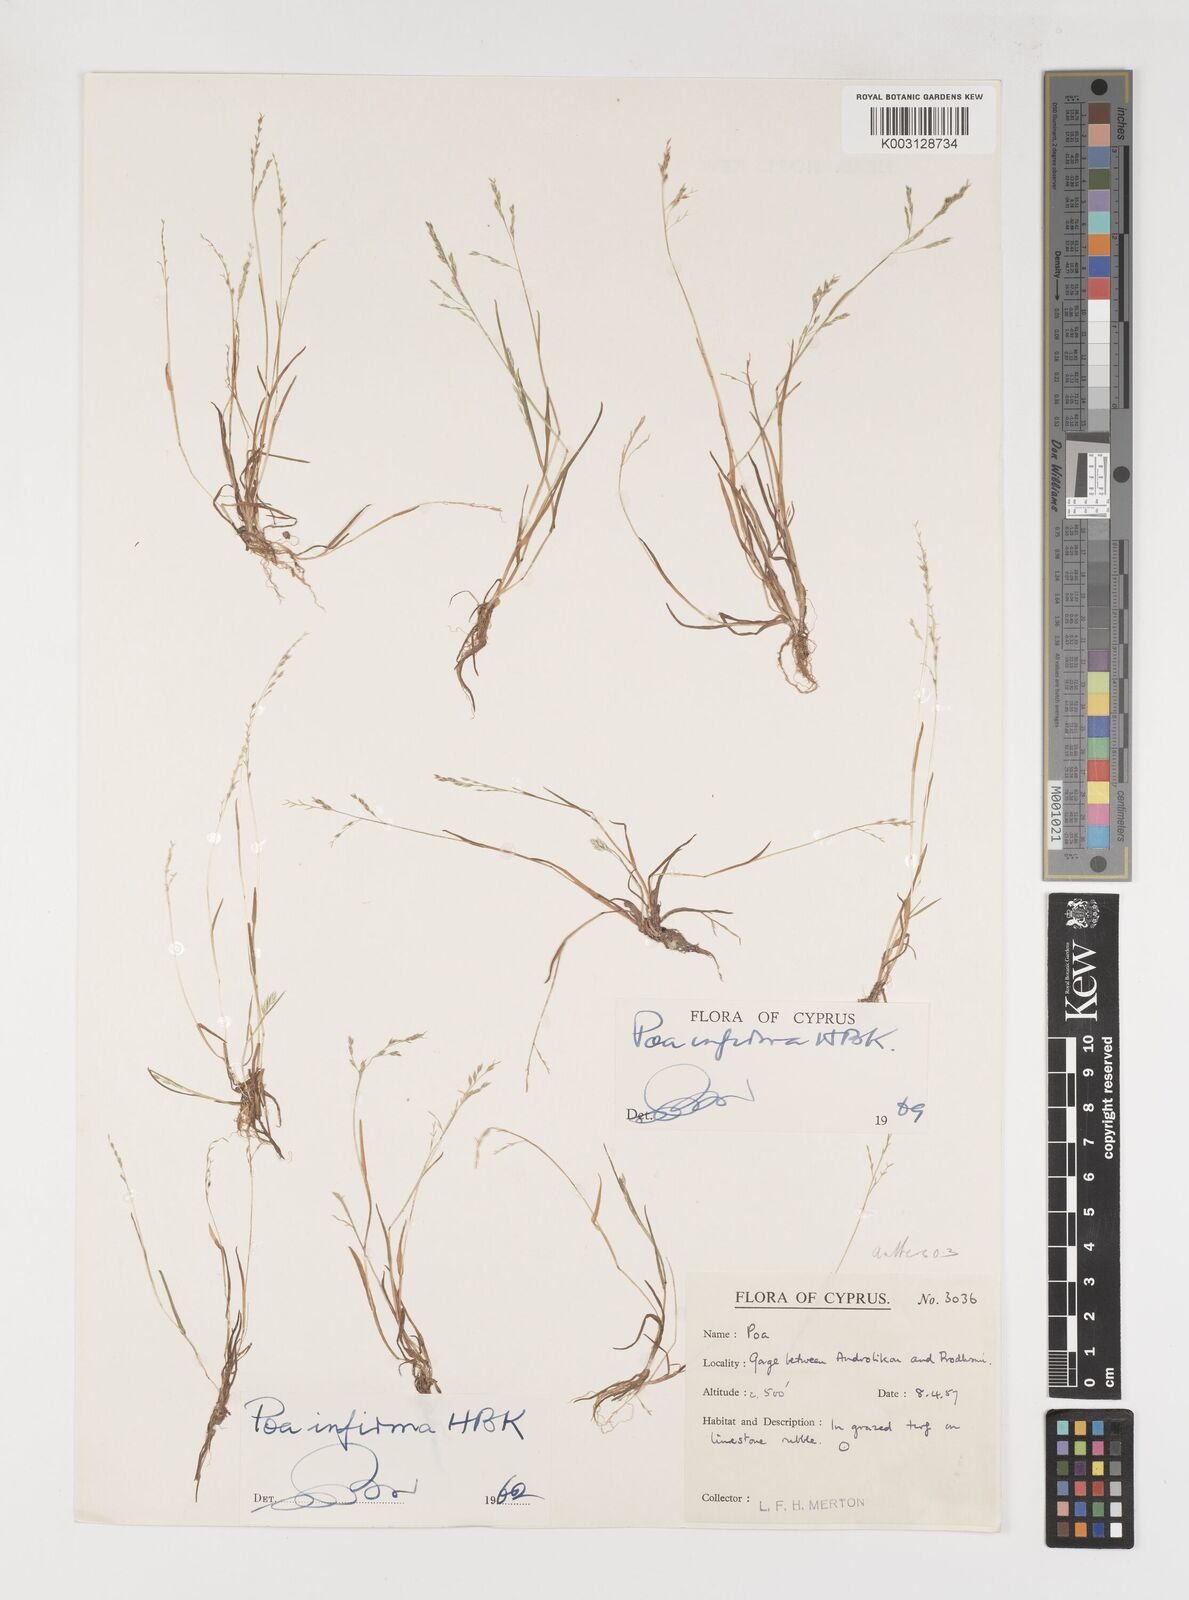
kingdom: Plantae
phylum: Tracheophyta
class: Liliopsida
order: Poales
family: Poaceae
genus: Poa
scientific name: Poa infirma
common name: Weak bluegrass
